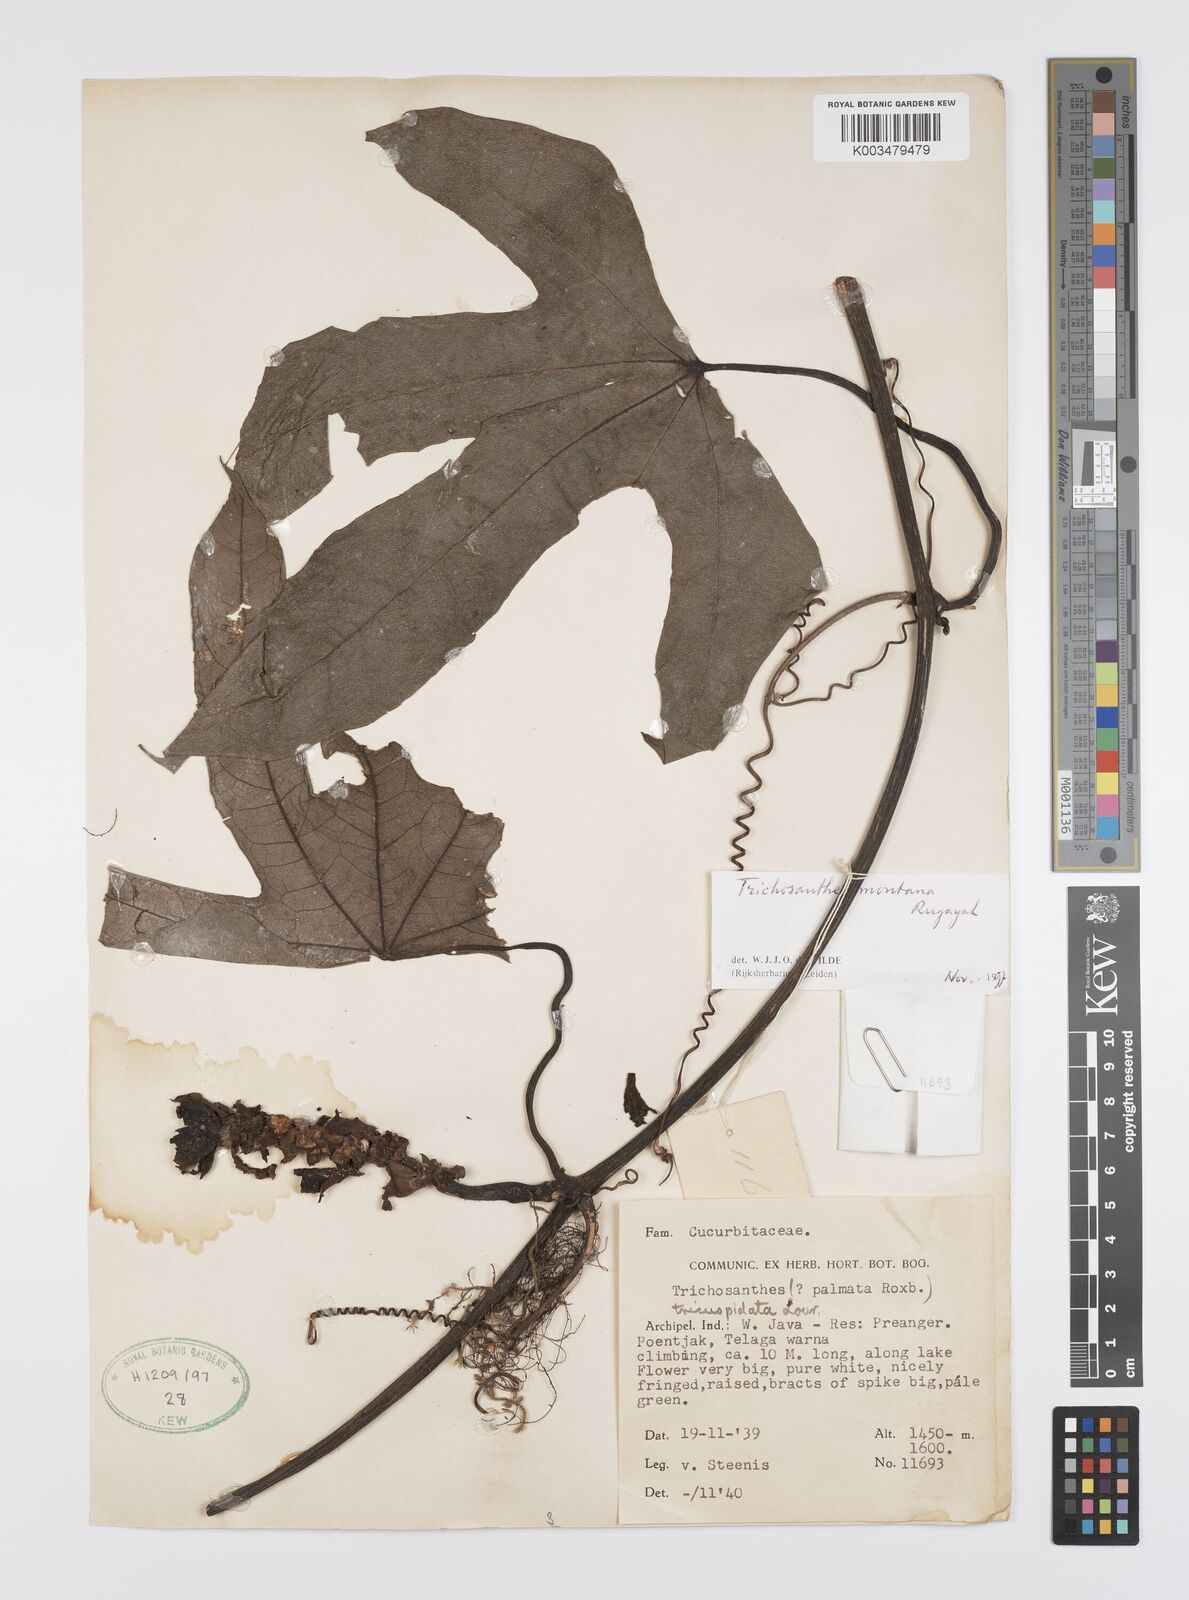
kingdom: Plantae
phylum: Tracheophyta
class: Magnoliopsida
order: Cucurbitales
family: Cucurbitaceae
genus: Trichosanthes
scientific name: Trichosanthes montana
